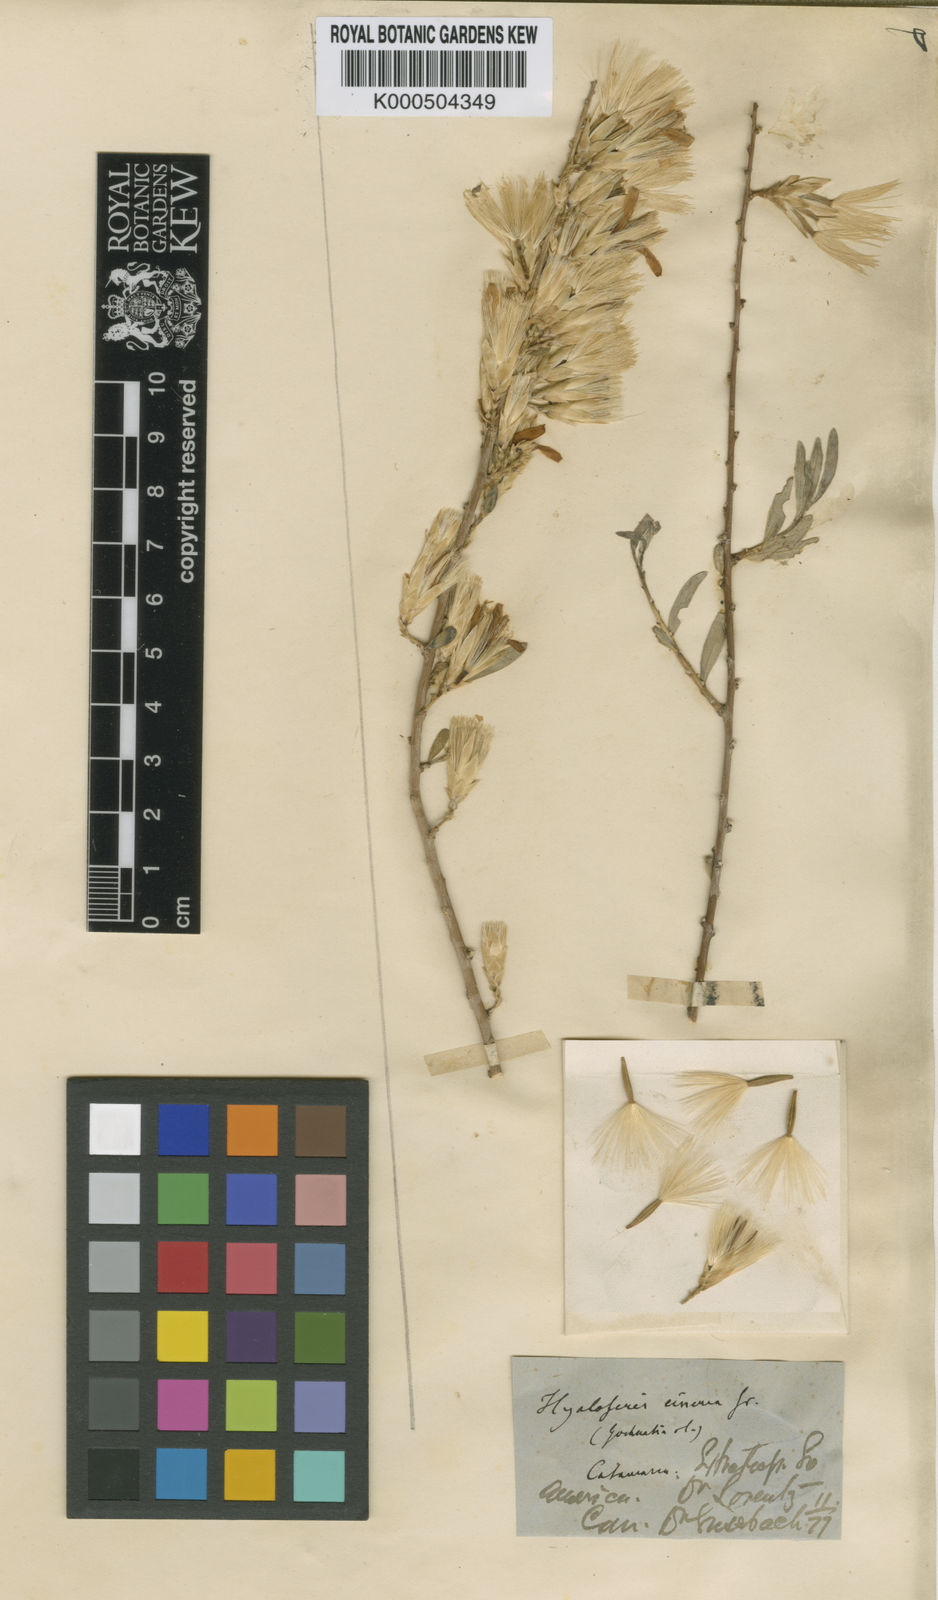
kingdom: Plantae
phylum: Tracheophyta
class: Magnoliopsida
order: Asterales
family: Asteraceae
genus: Hyaloseris
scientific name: Hyaloseris cinerea
